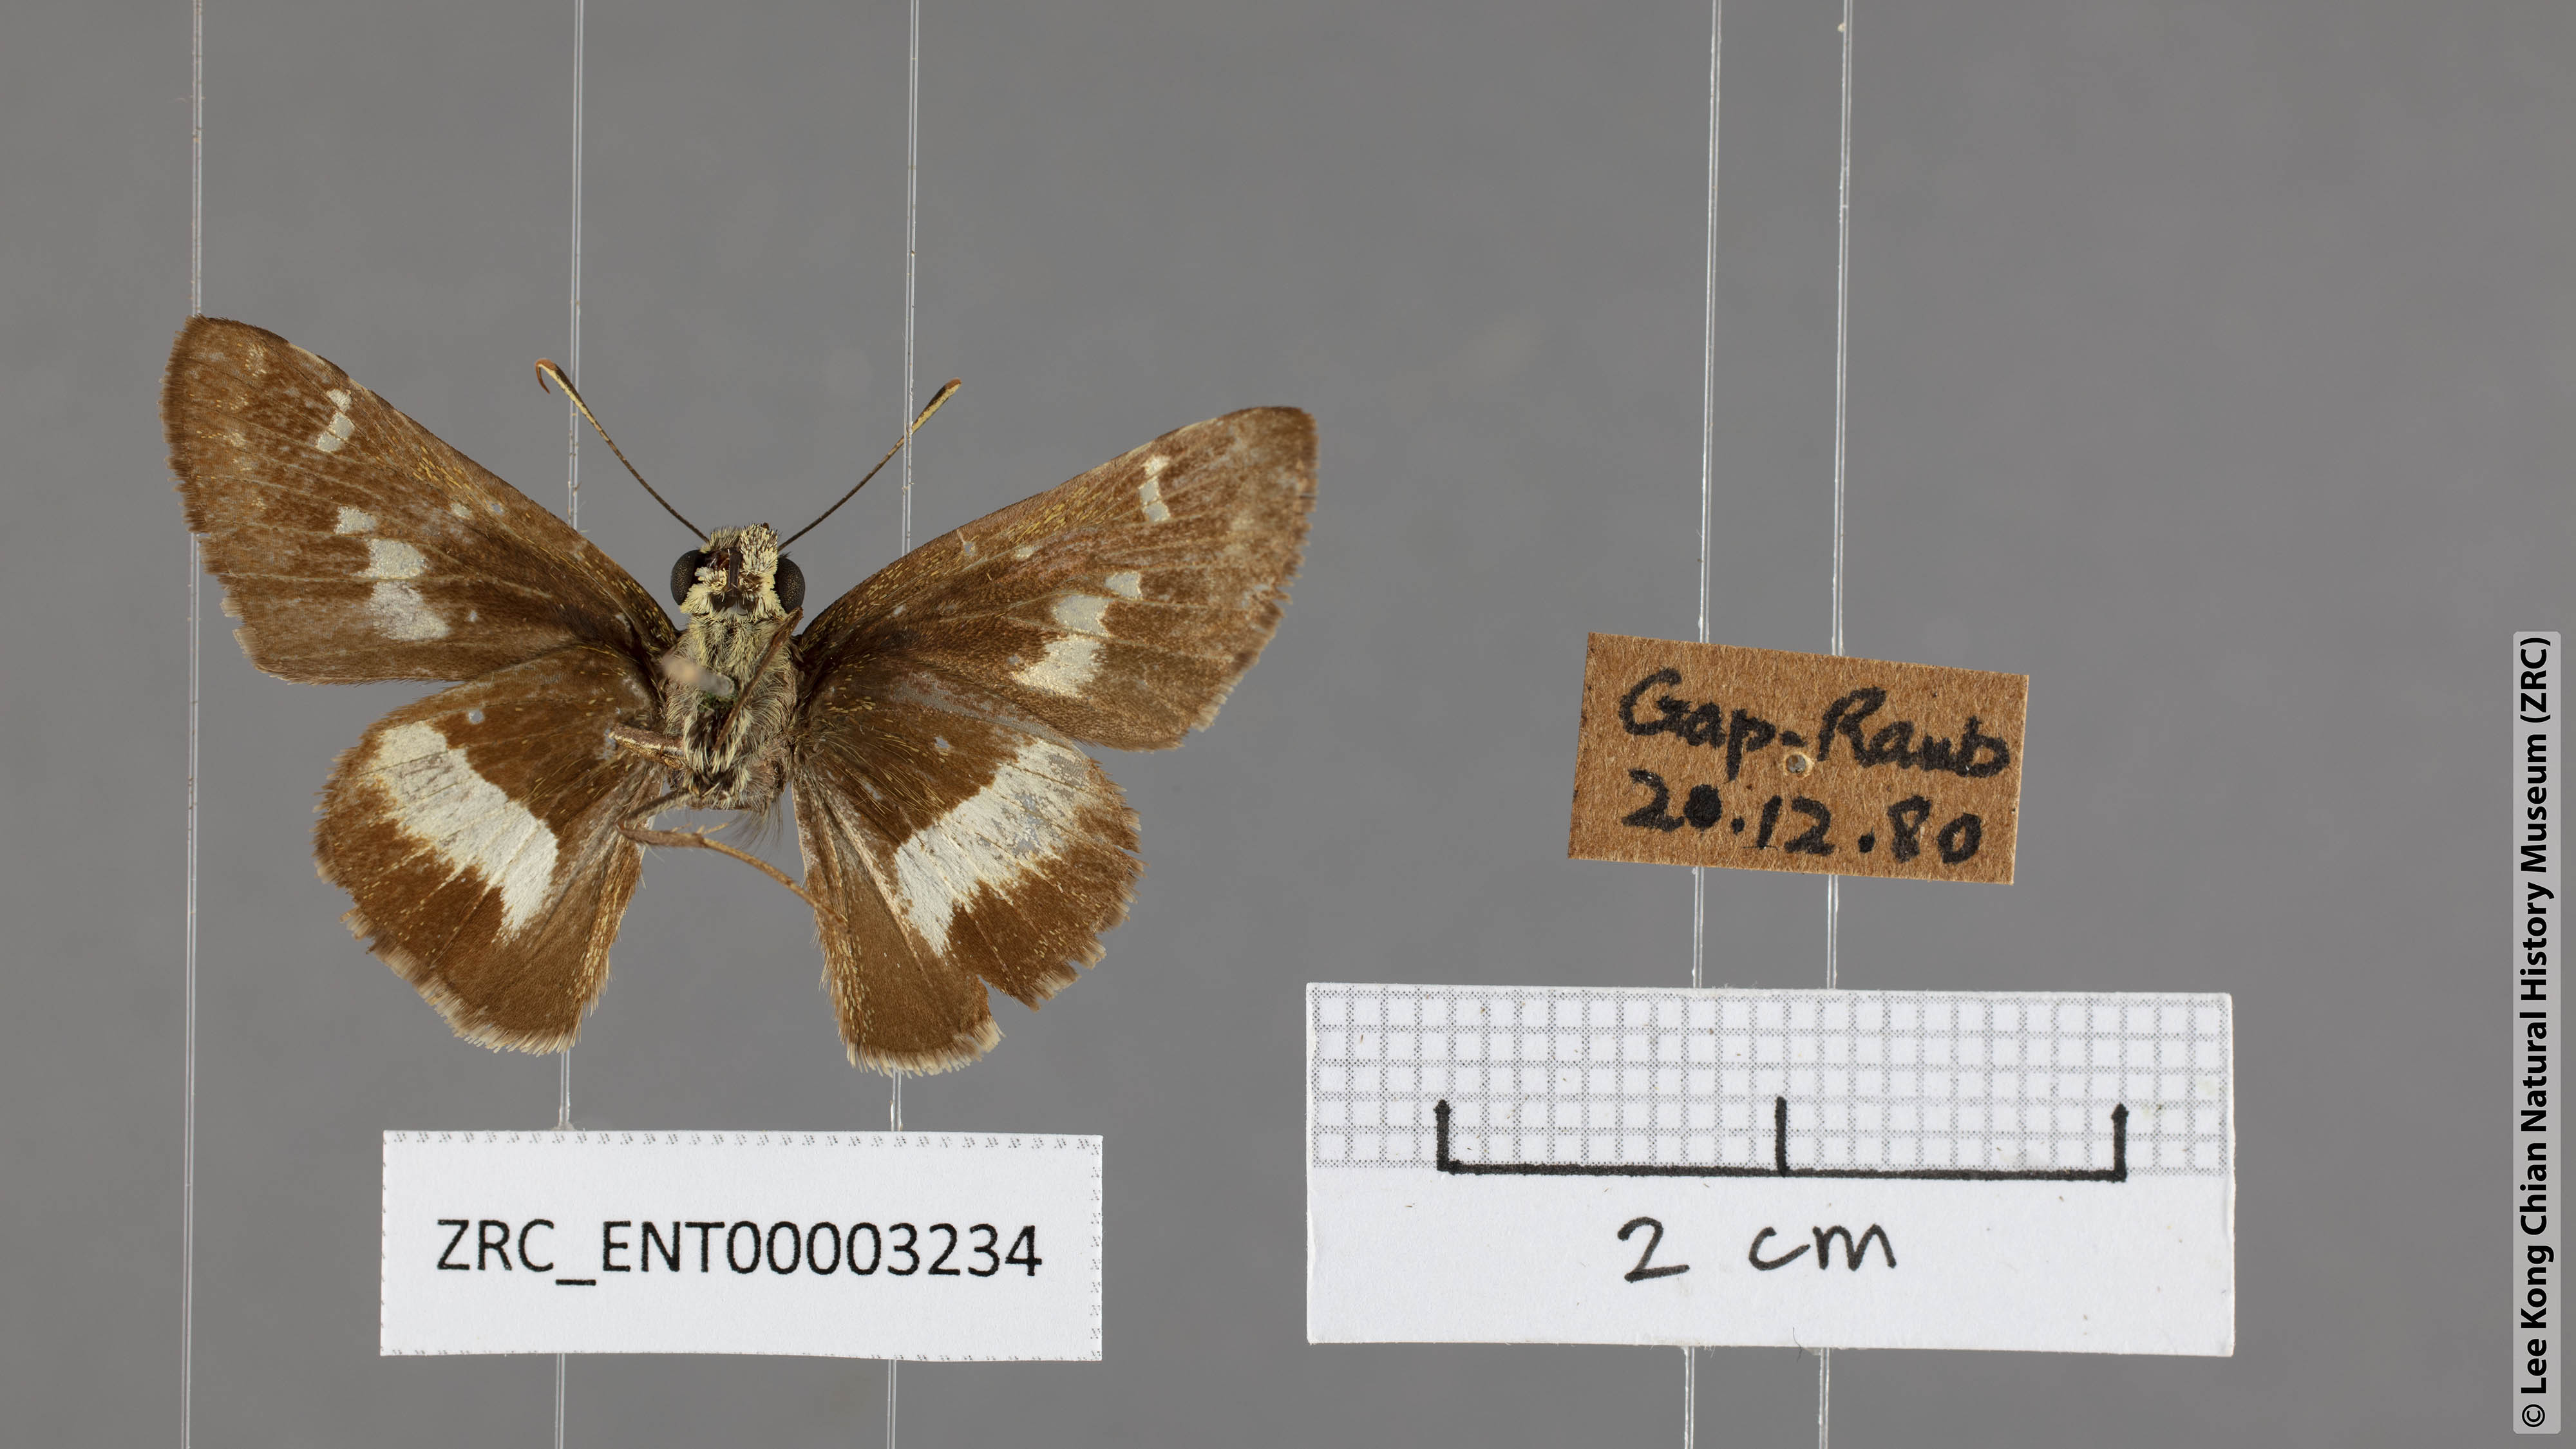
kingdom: Animalia
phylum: Arthropoda
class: Insecta
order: Lepidoptera
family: Hesperiidae
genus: Halpe
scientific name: Halpe
